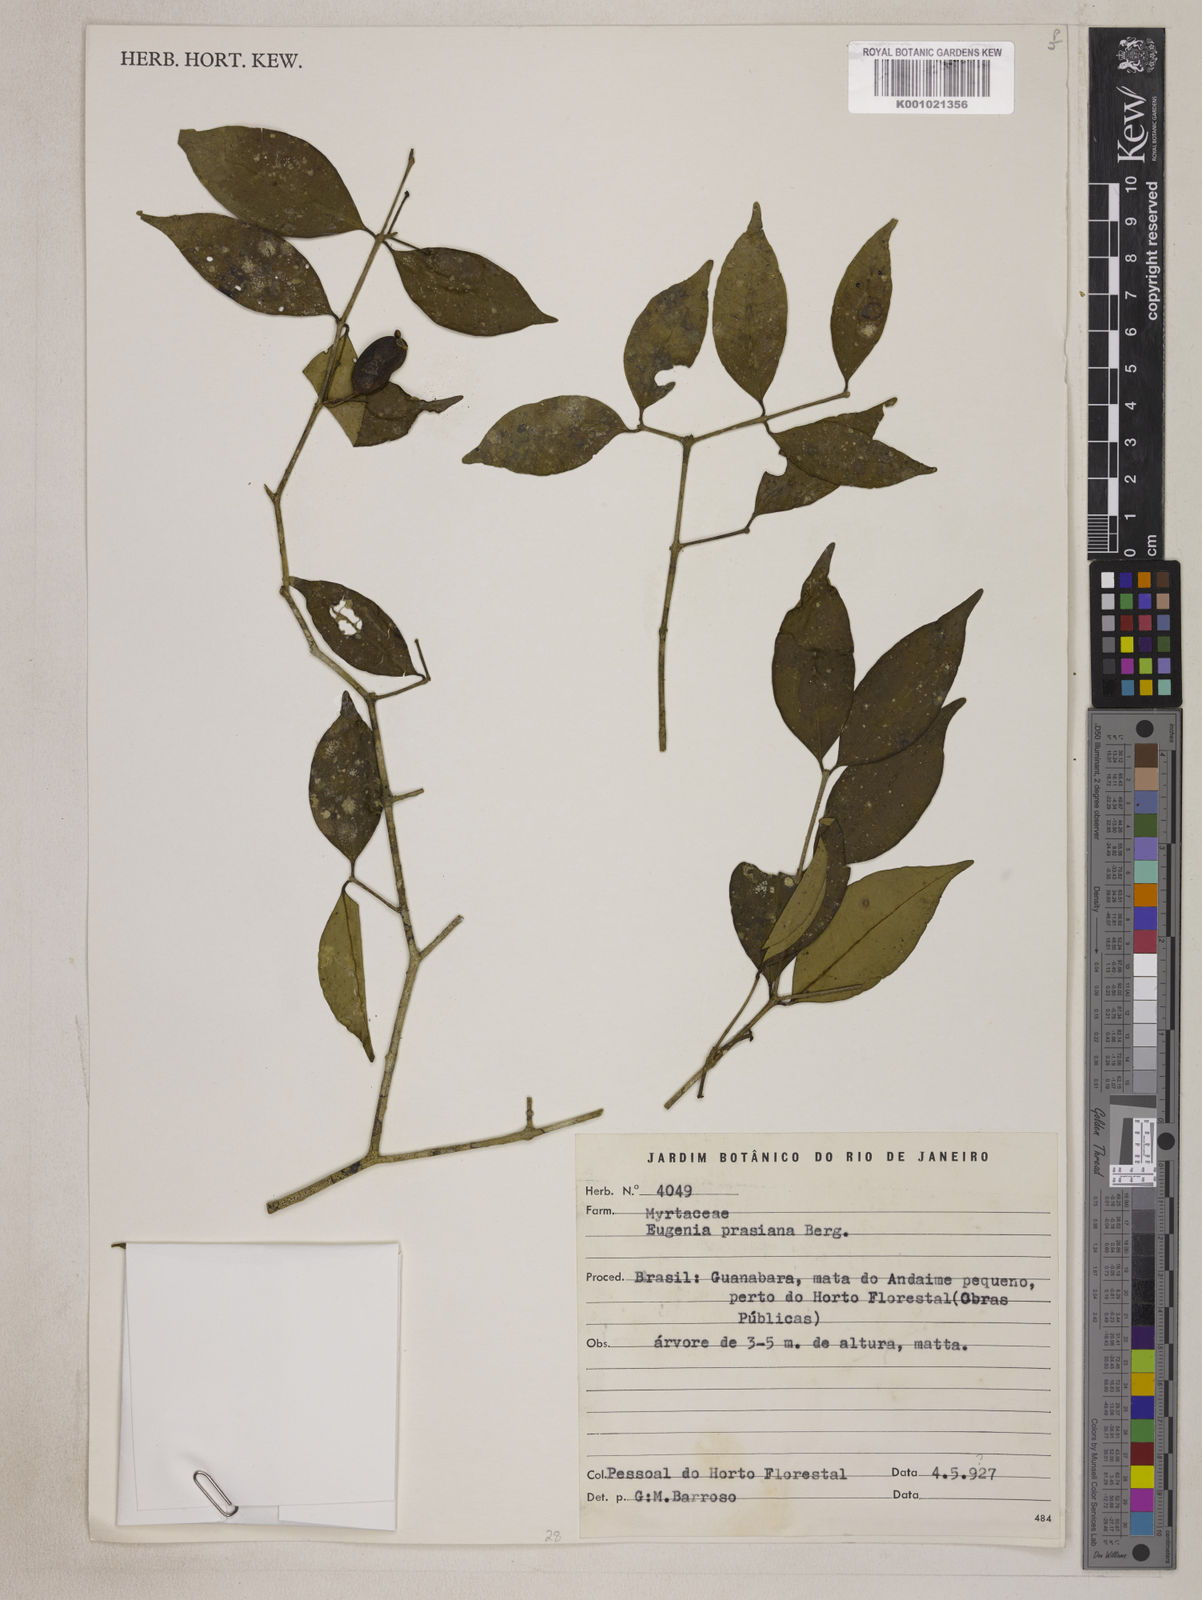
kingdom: Plantae
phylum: Tracheophyta
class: Magnoliopsida
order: Myrtales
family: Myrtaceae
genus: Eugenia
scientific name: Eugenia prasina
